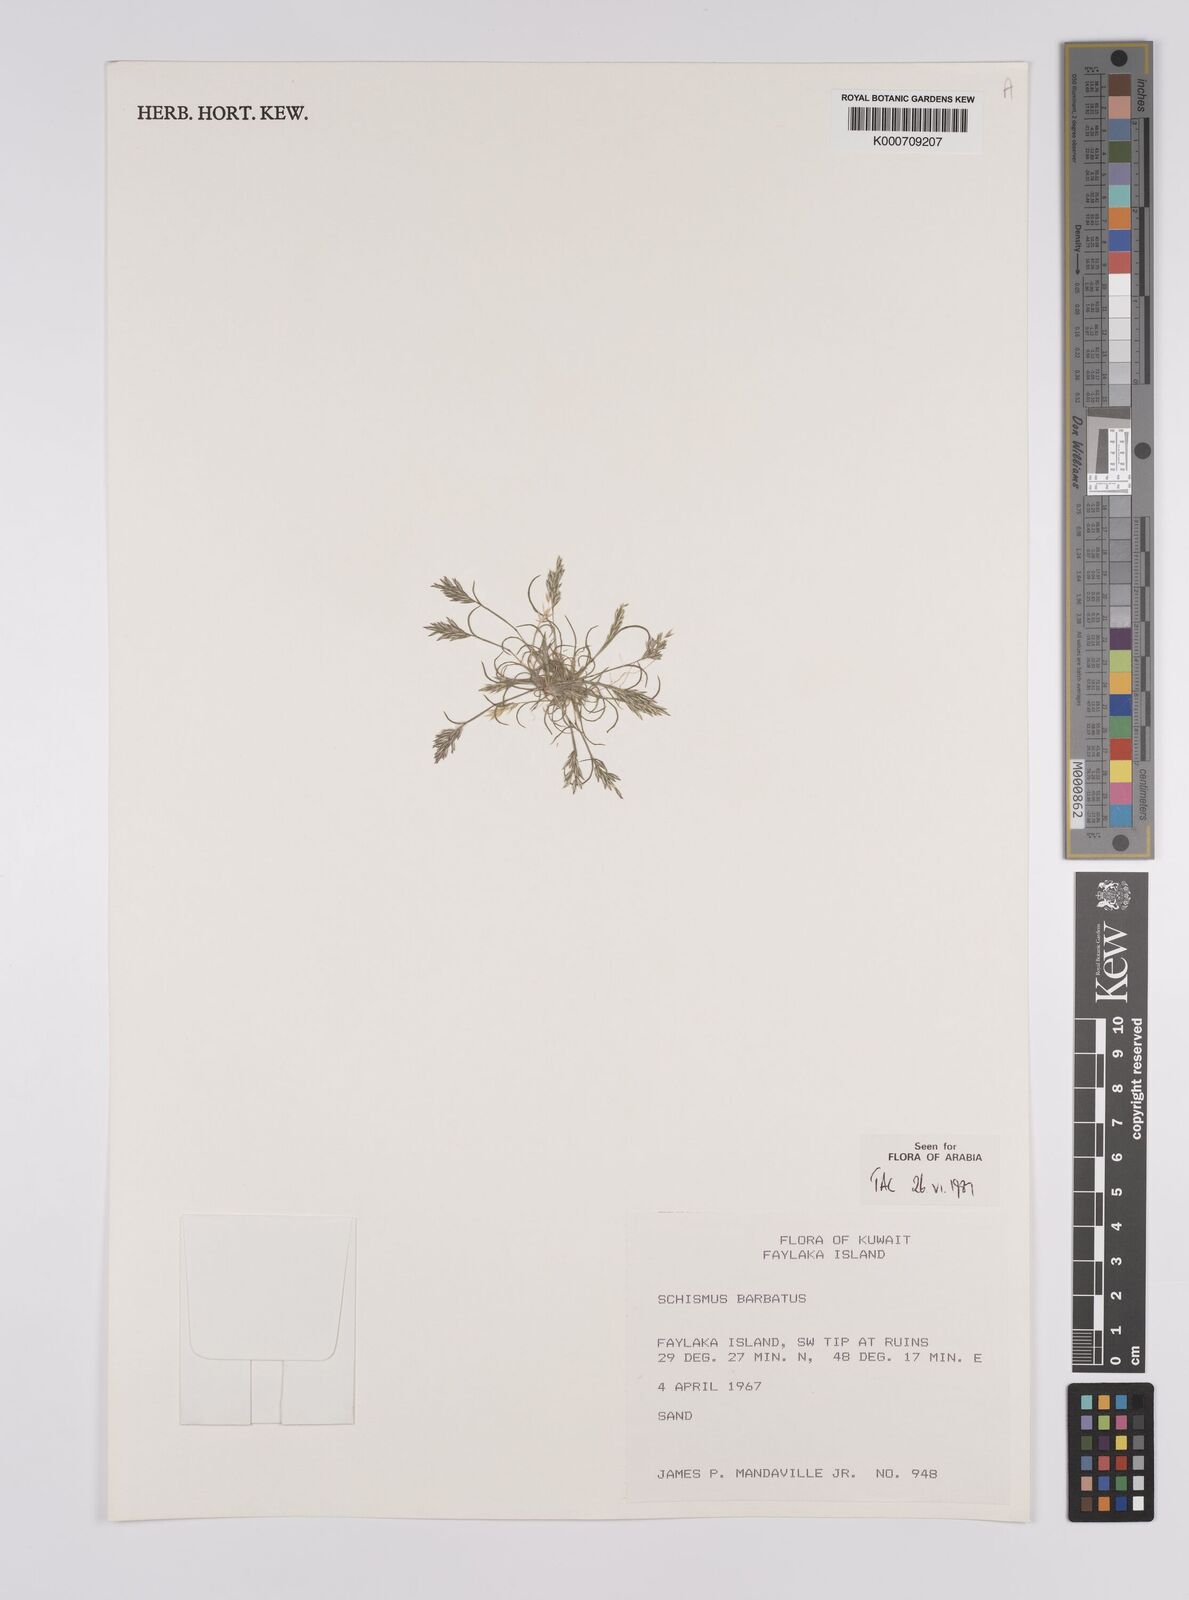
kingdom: Plantae
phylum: Tracheophyta
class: Liliopsida
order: Poales
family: Poaceae
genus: Schismus
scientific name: Schismus barbatus
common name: Kelch-grass
